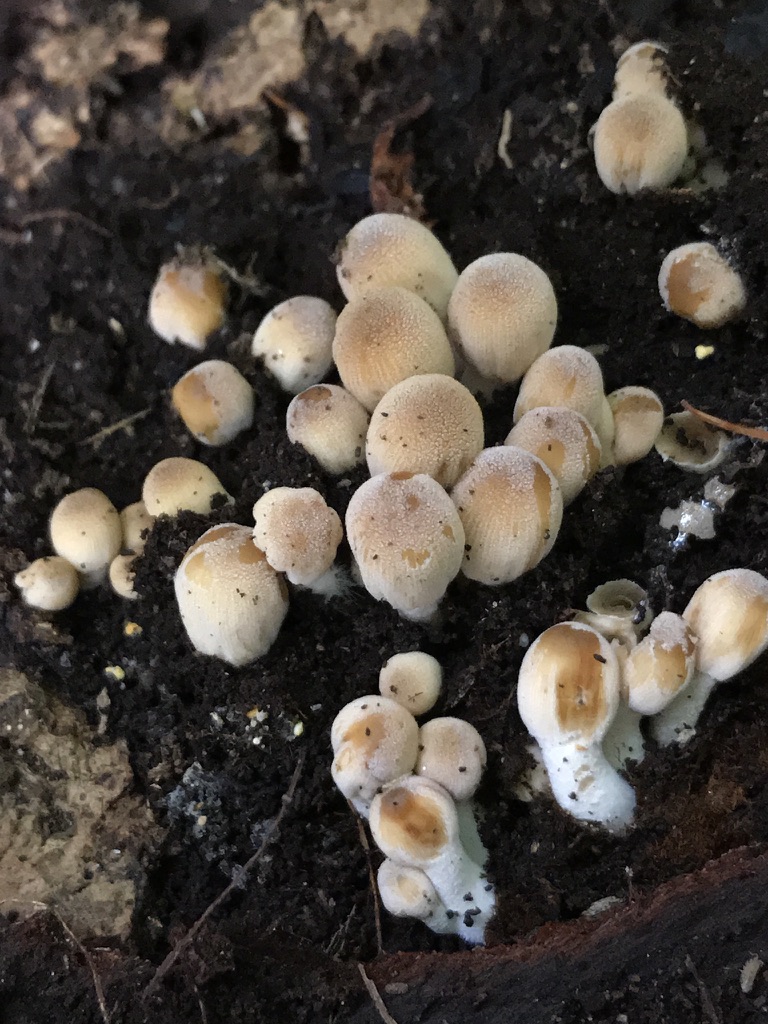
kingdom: Fungi
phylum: Basidiomycota
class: Agaricomycetes
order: Agaricales
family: Psathyrellaceae
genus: Coprinellus
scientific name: Coprinellus micaceus
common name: glimmer-blækhat
